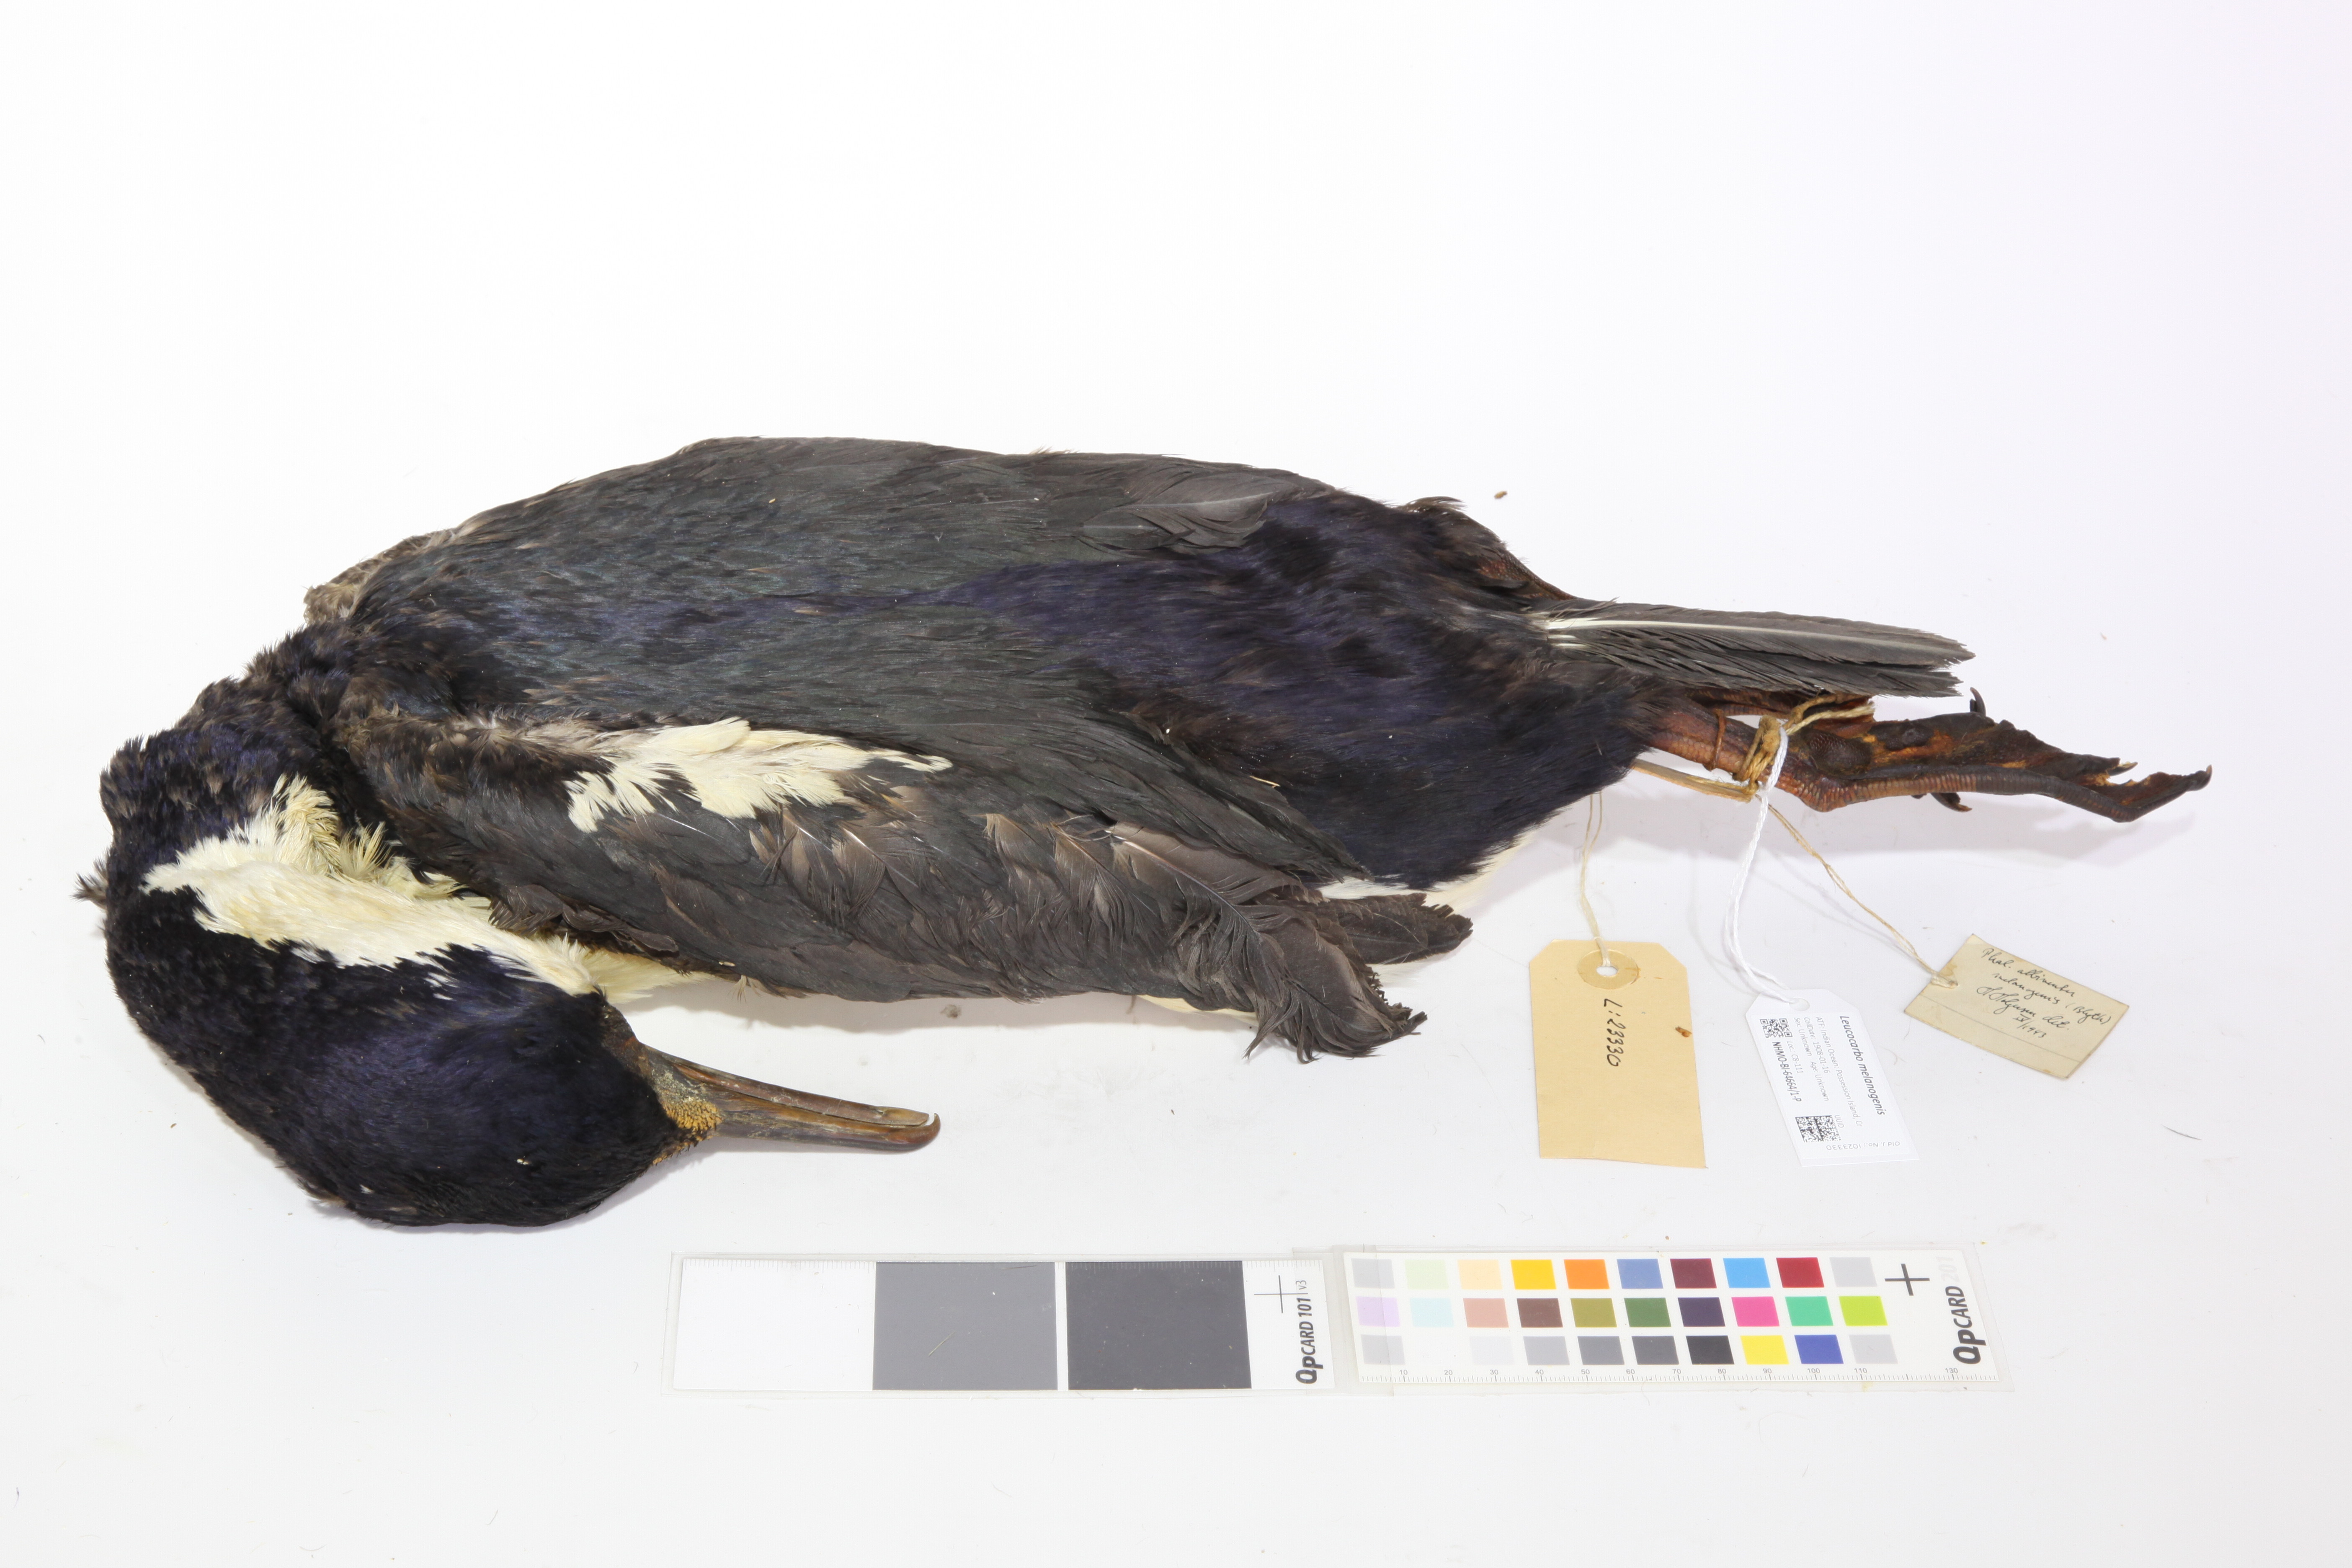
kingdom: Animalia
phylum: Chordata
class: Aves
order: Suliformes
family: Phalacrocoracidae
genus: Leucocarbo
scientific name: Leucocarbo albiventer
